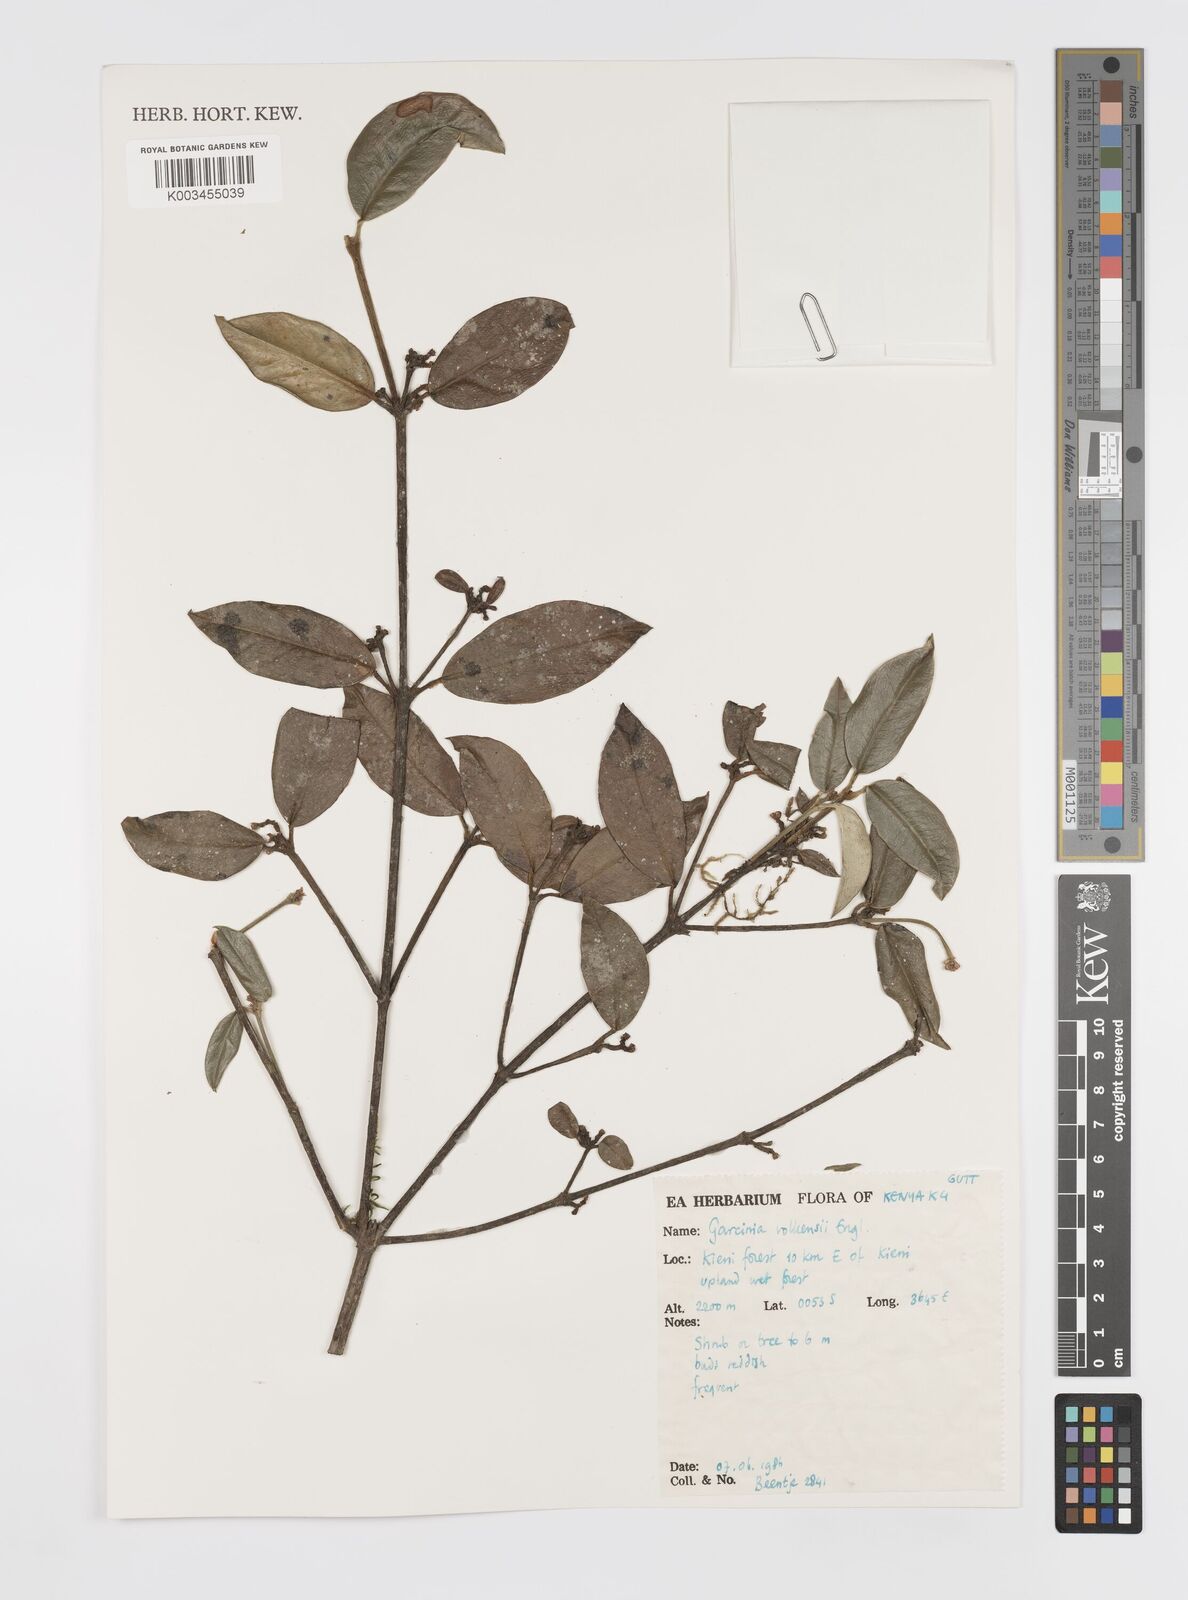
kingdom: Plantae
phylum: Tracheophyta
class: Magnoliopsida
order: Malpighiales
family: Clusiaceae
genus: Garcinia
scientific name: Garcinia volkensii
